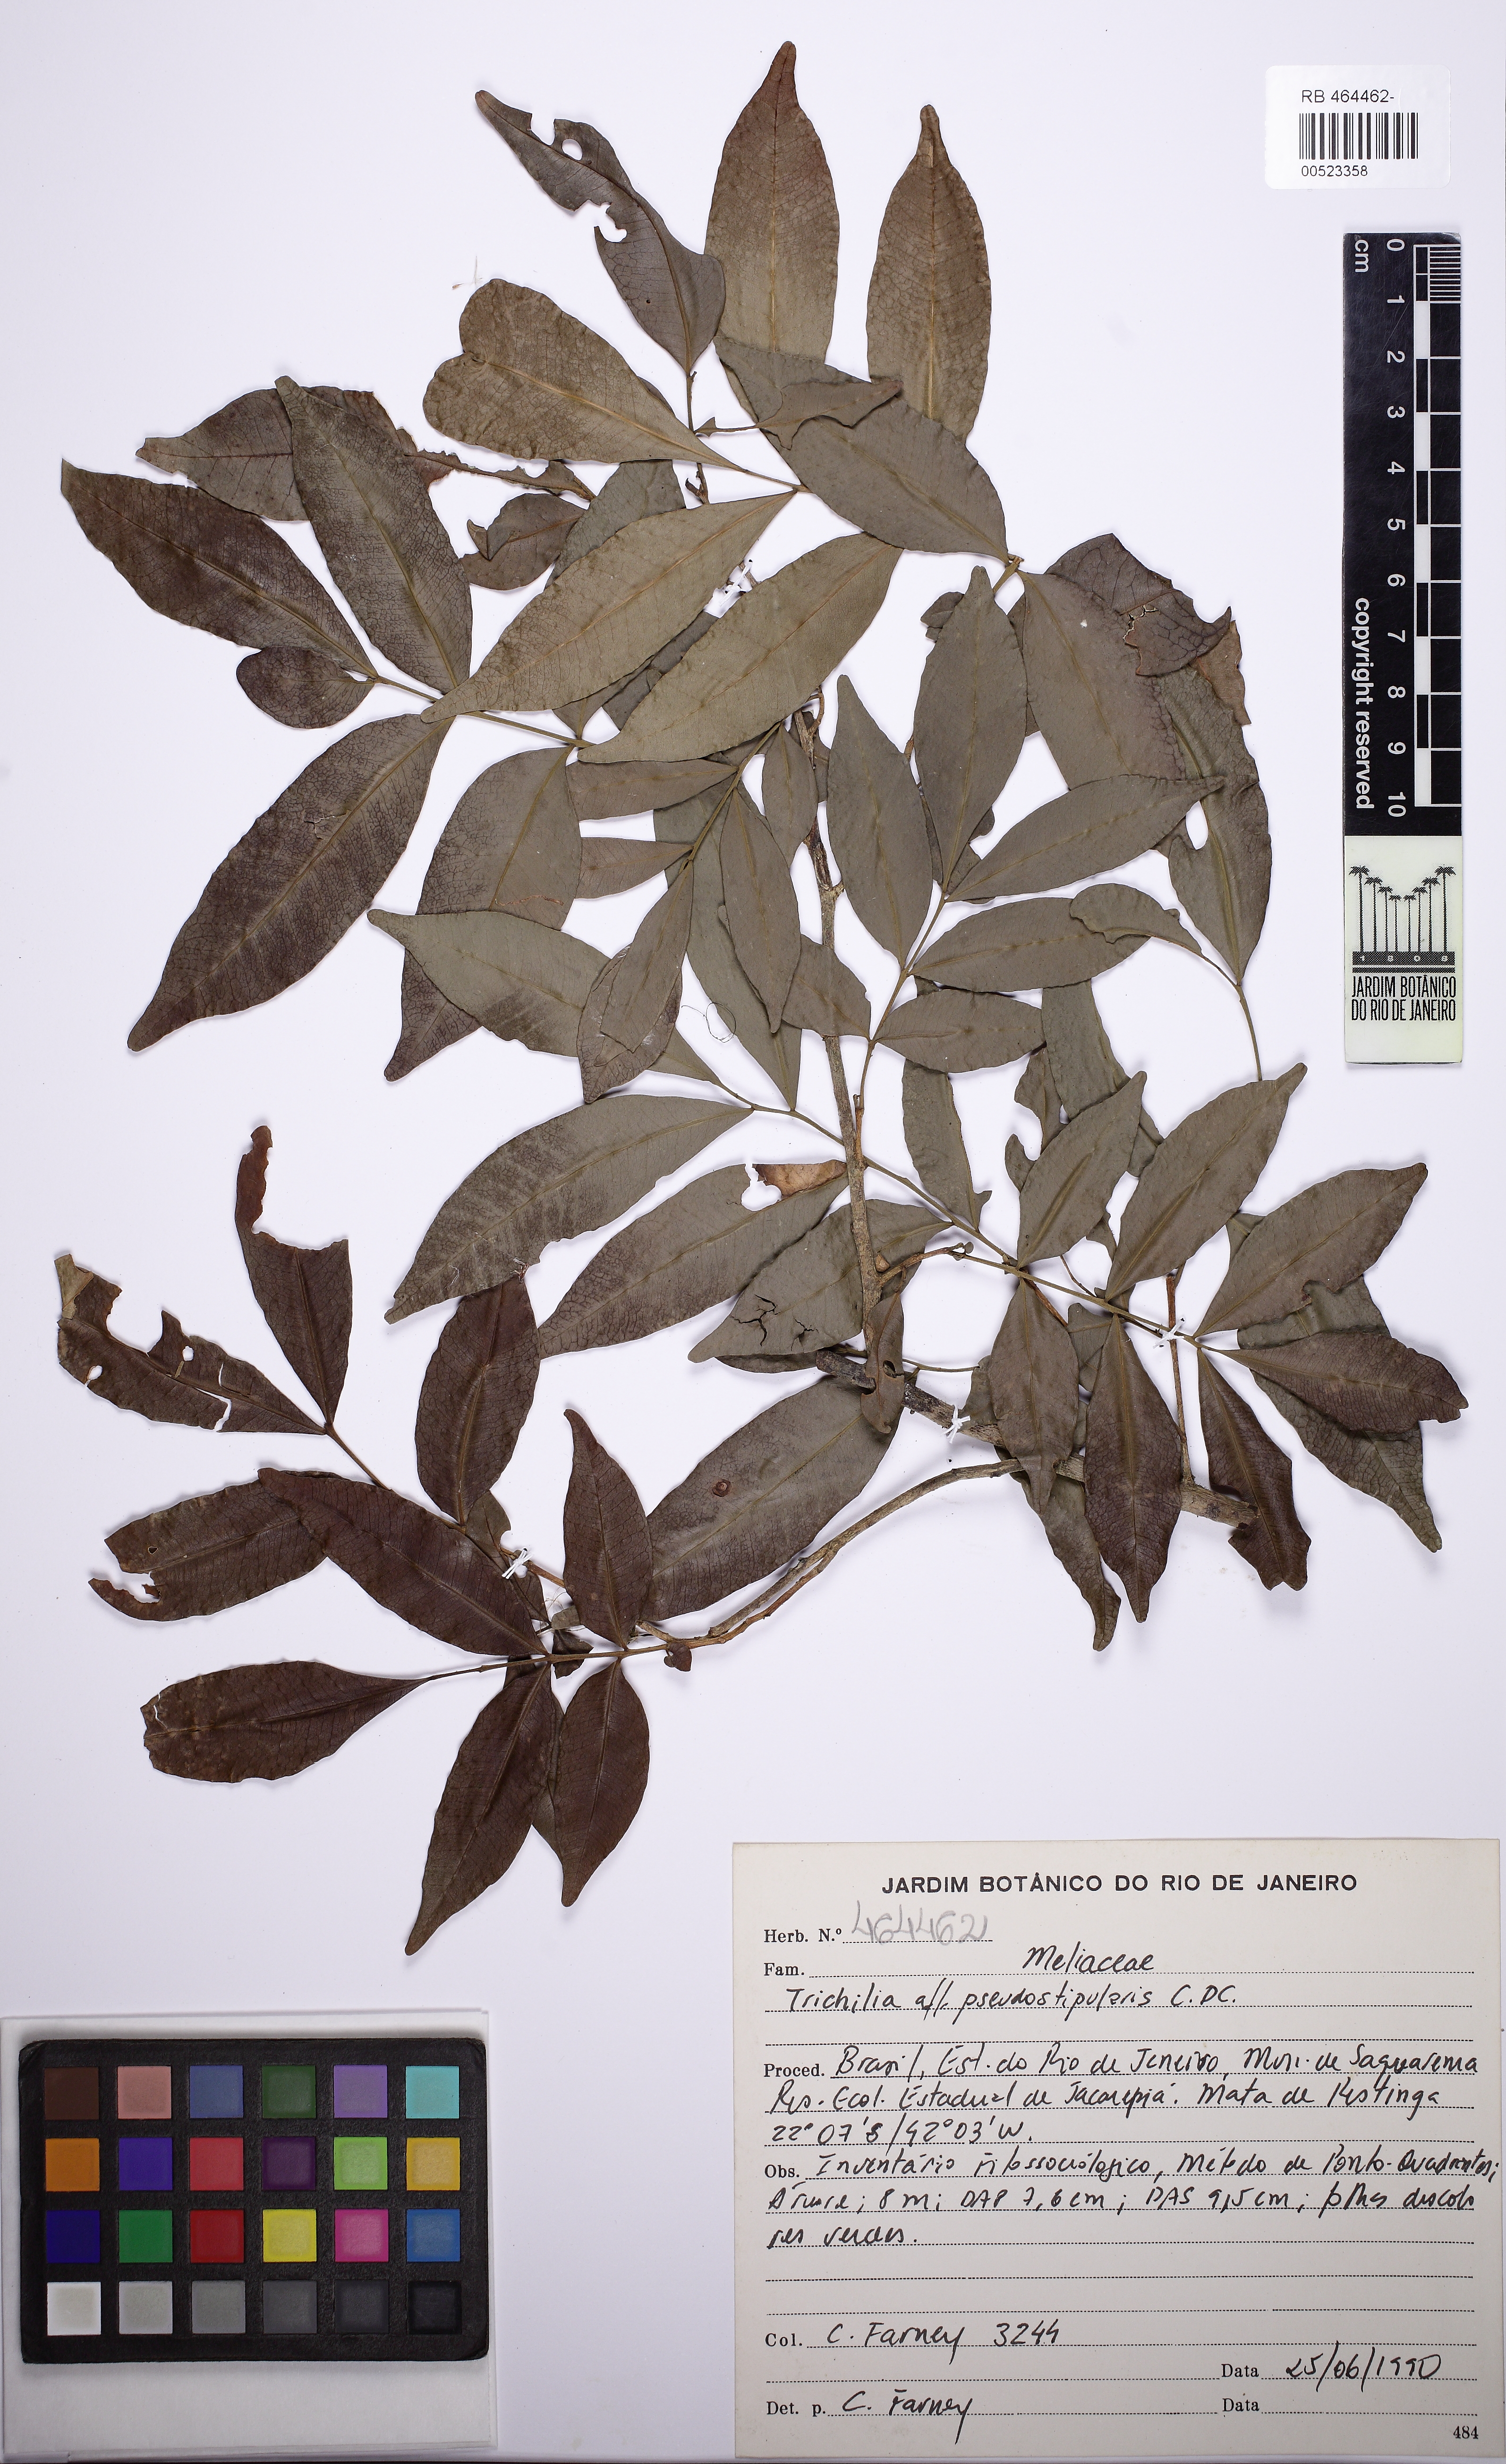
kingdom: Plantae
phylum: Tracheophyta
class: Magnoliopsida
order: Sapindales
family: Meliaceae
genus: Trichilia
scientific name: Trichilia pseudostipularis
